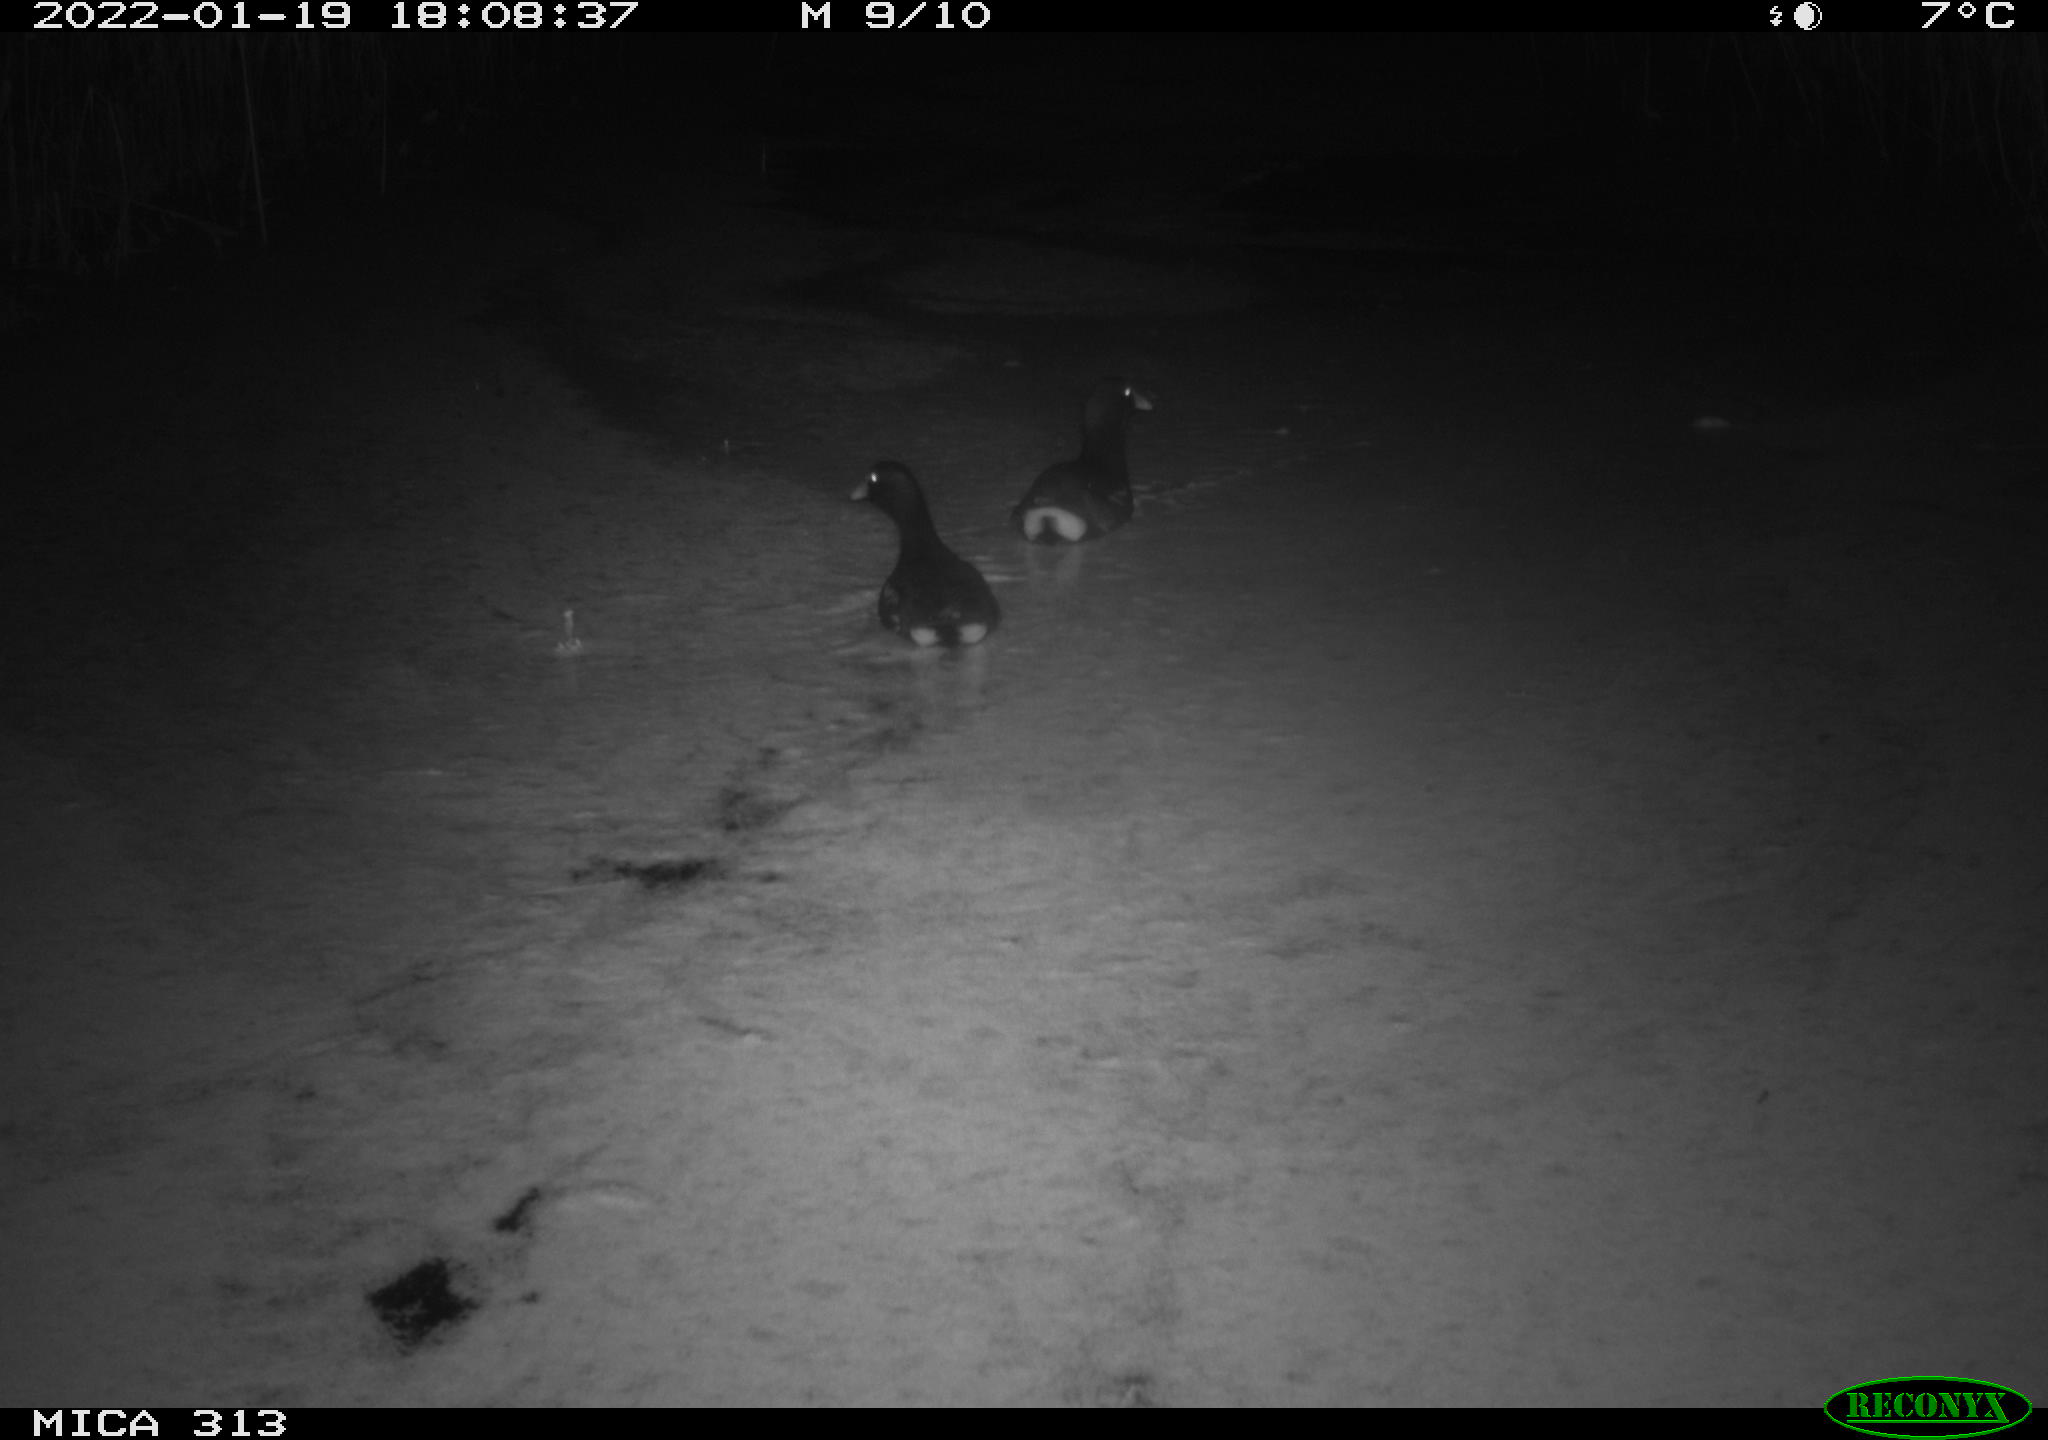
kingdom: Animalia
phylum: Chordata
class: Aves
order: Gruiformes
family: Rallidae
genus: Gallinula
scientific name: Gallinula chloropus
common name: Common moorhen
